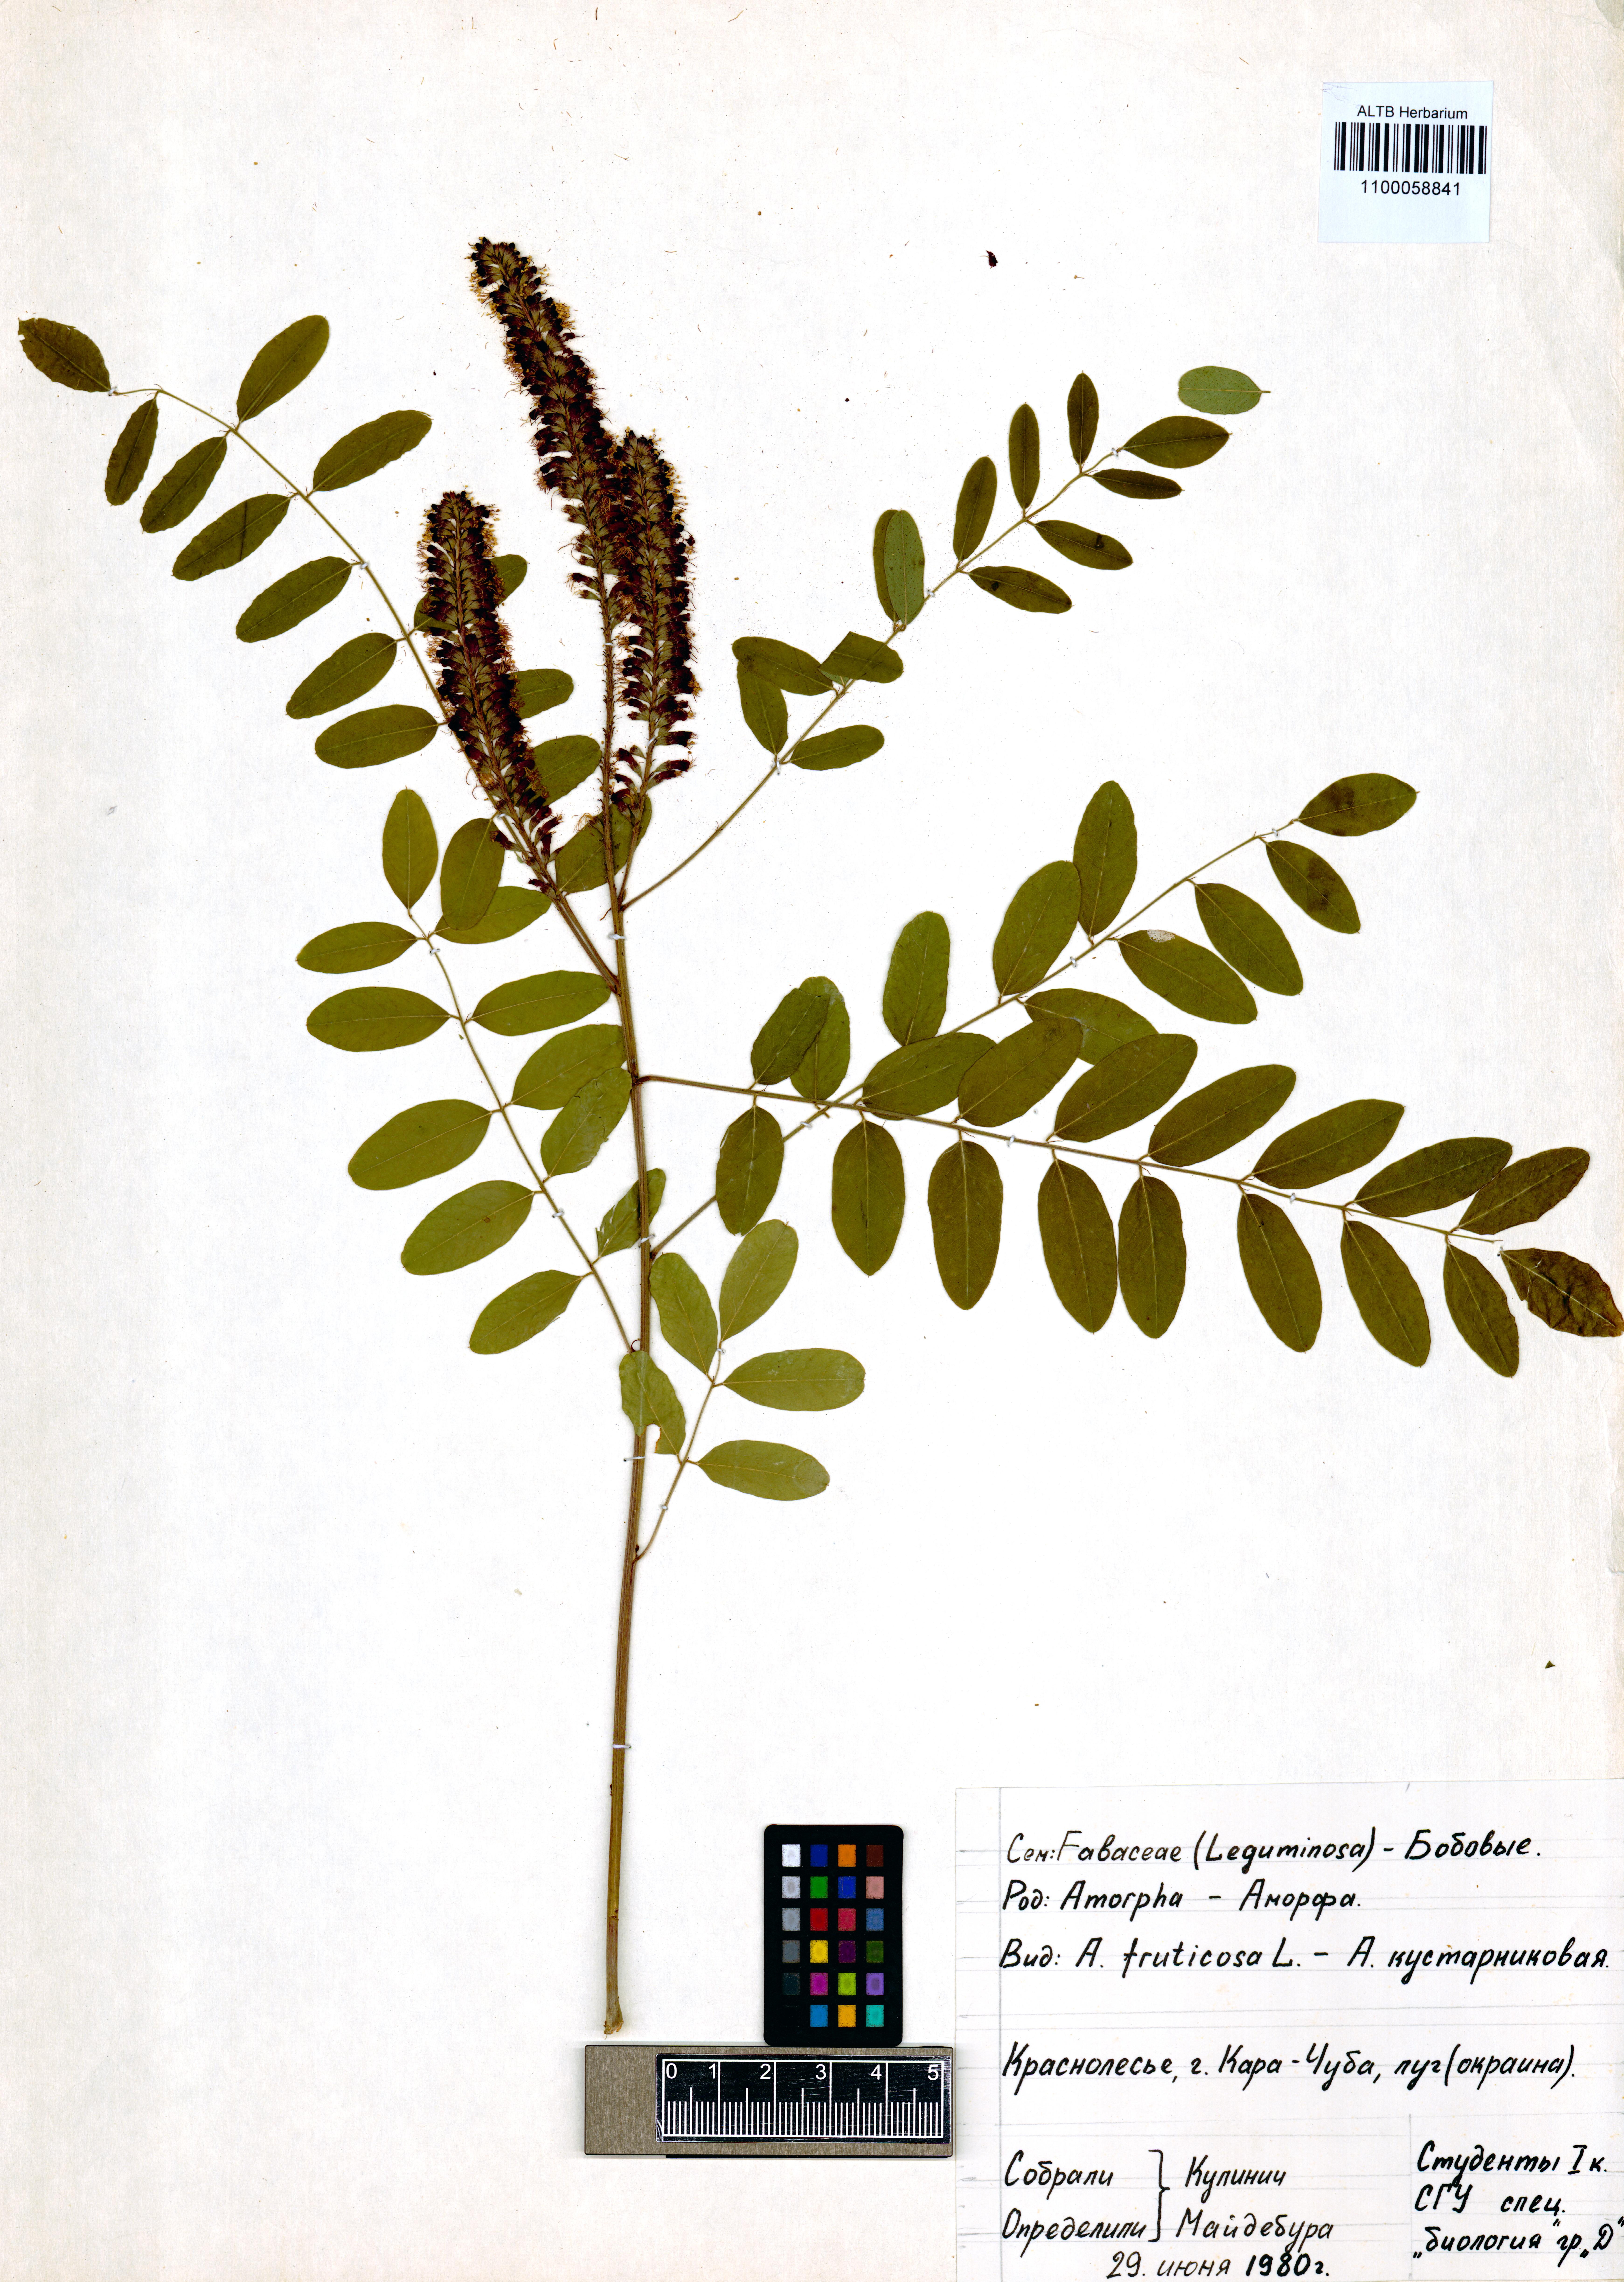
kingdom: Plantae
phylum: Tracheophyta
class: Magnoliopsida
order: Fabales
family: Fabaceae
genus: Amorpha
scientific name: Amorpha fruticosa
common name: False indigo
